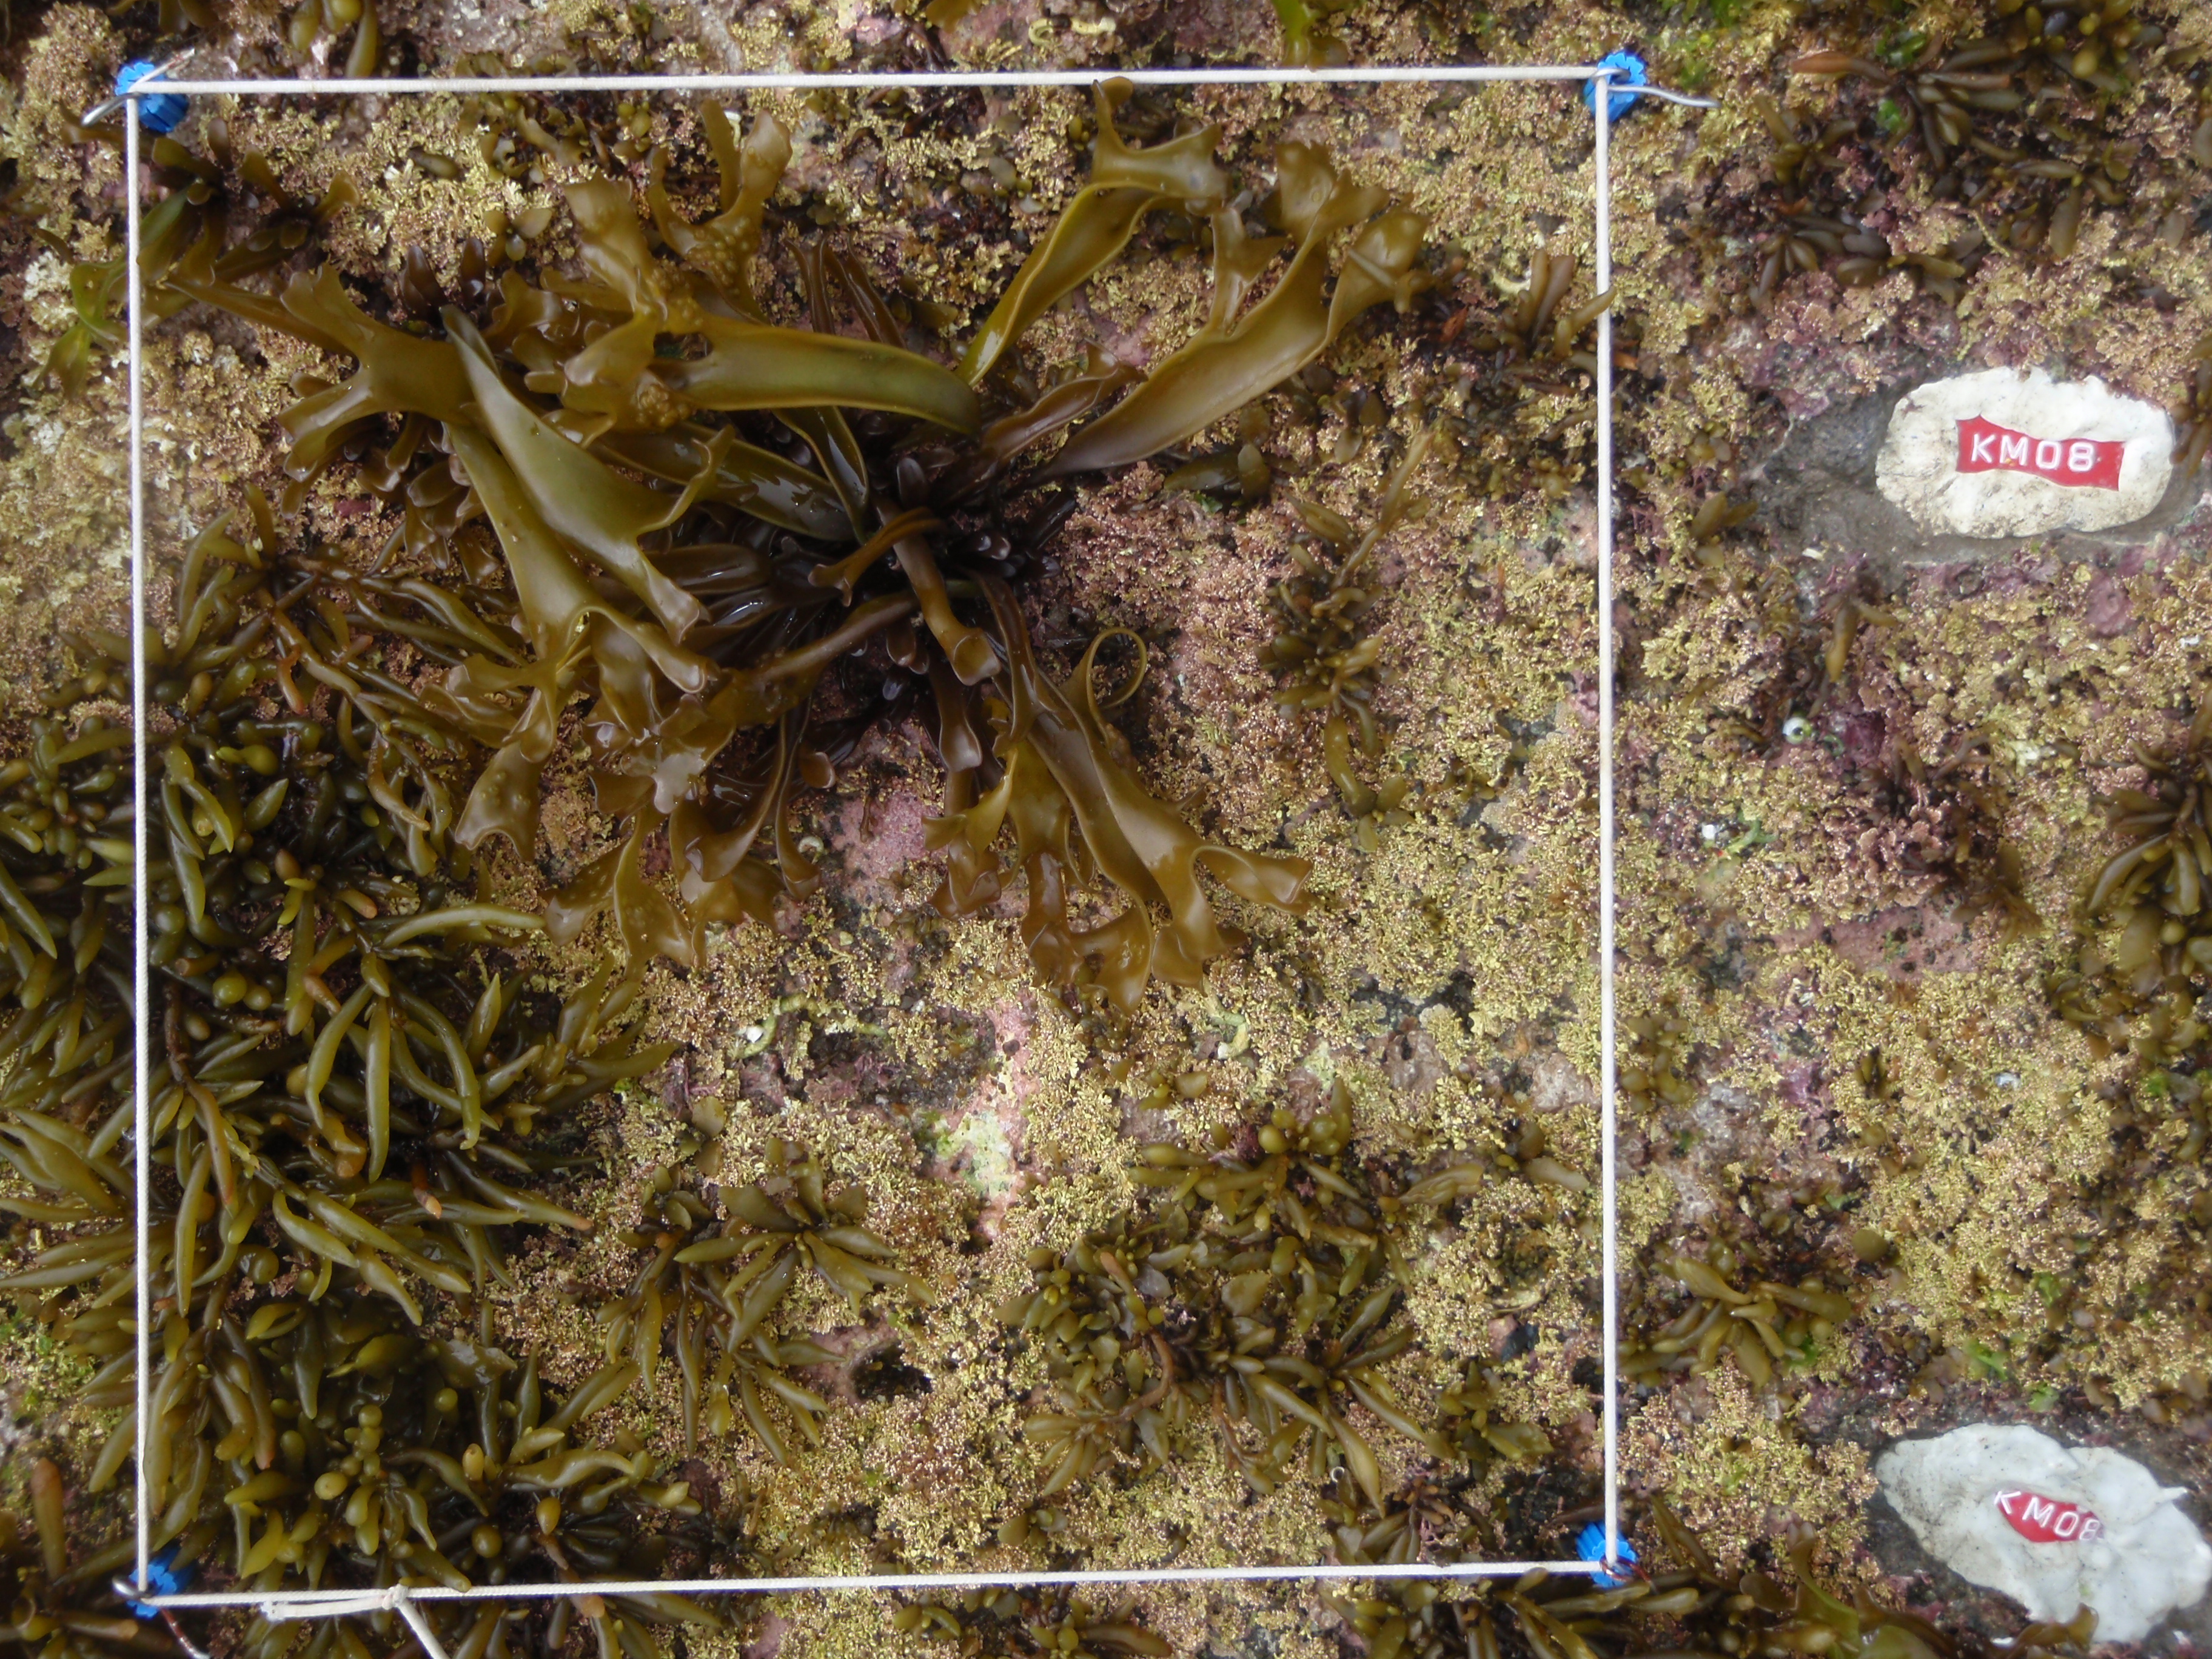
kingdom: Chromista
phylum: Ochrophyta
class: Phaeophyceae
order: Fucales
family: Sargassaceae
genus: Sargassum
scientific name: Sargassum fusiforme
